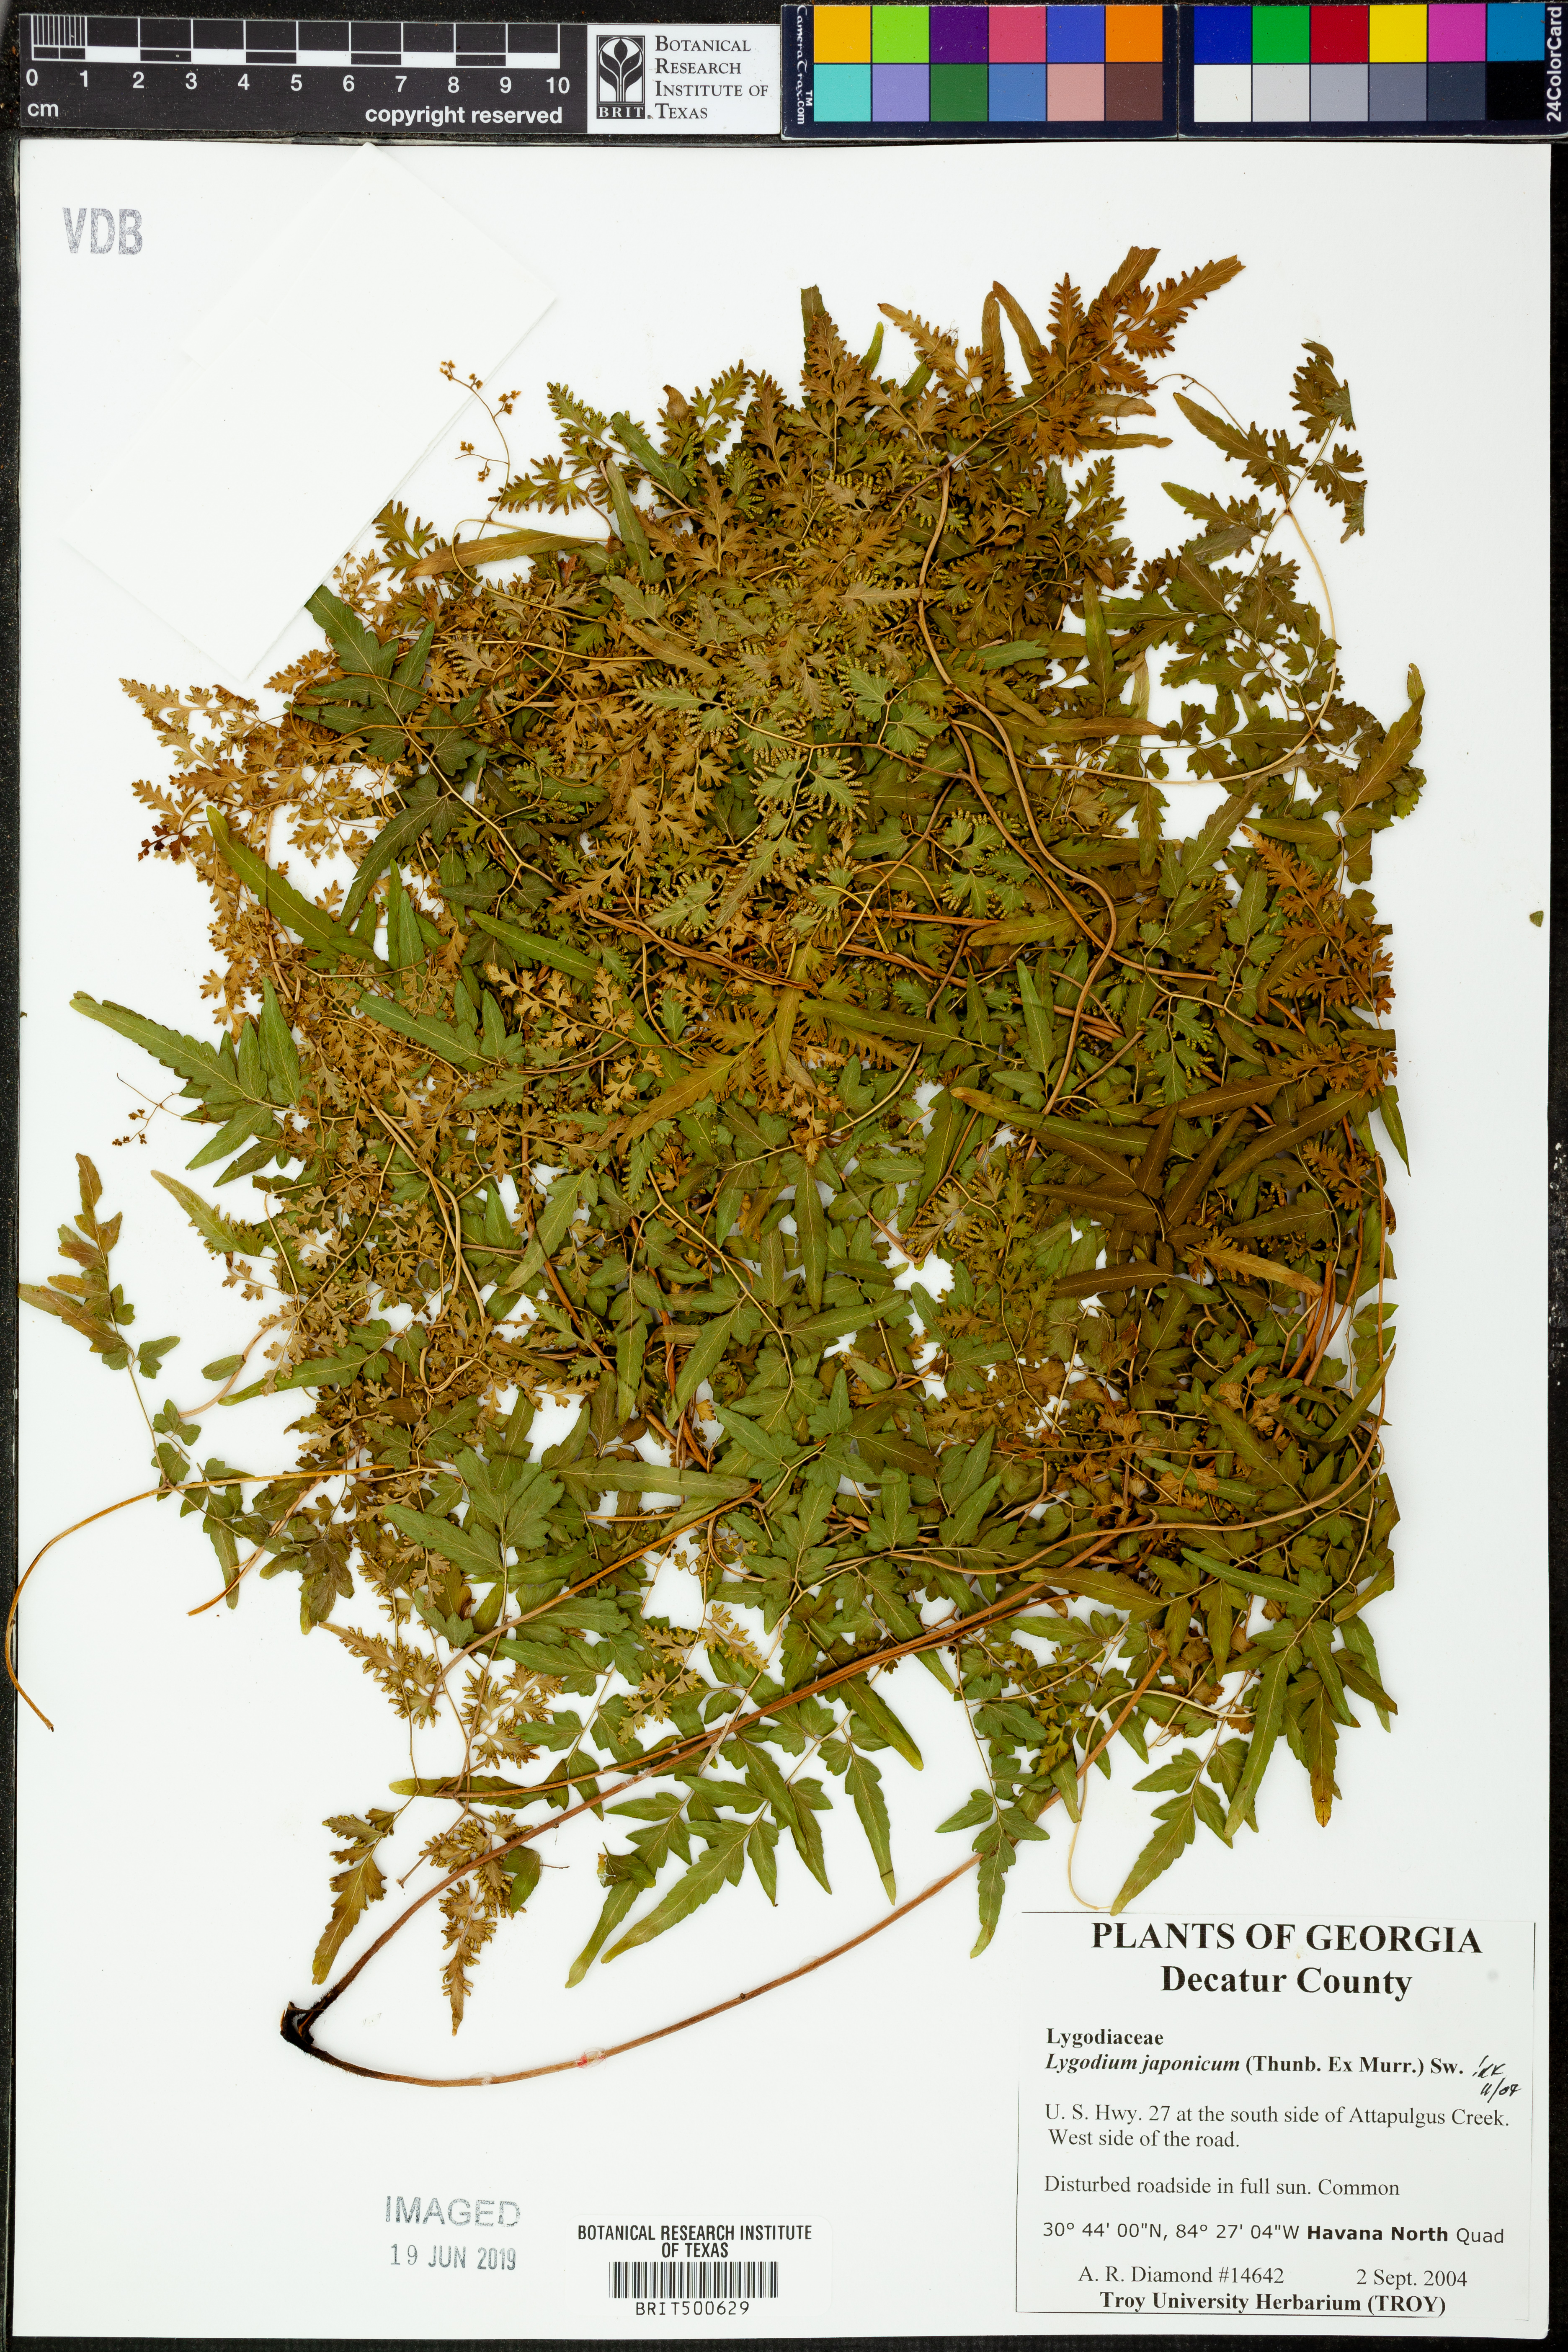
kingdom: Plantae
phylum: Tracheophyta
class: Polypodiopsida
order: Schizaeales
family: Lygodiaceae
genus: Lygodium
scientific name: Lygodium japonicum
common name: Japanese climbing fern
